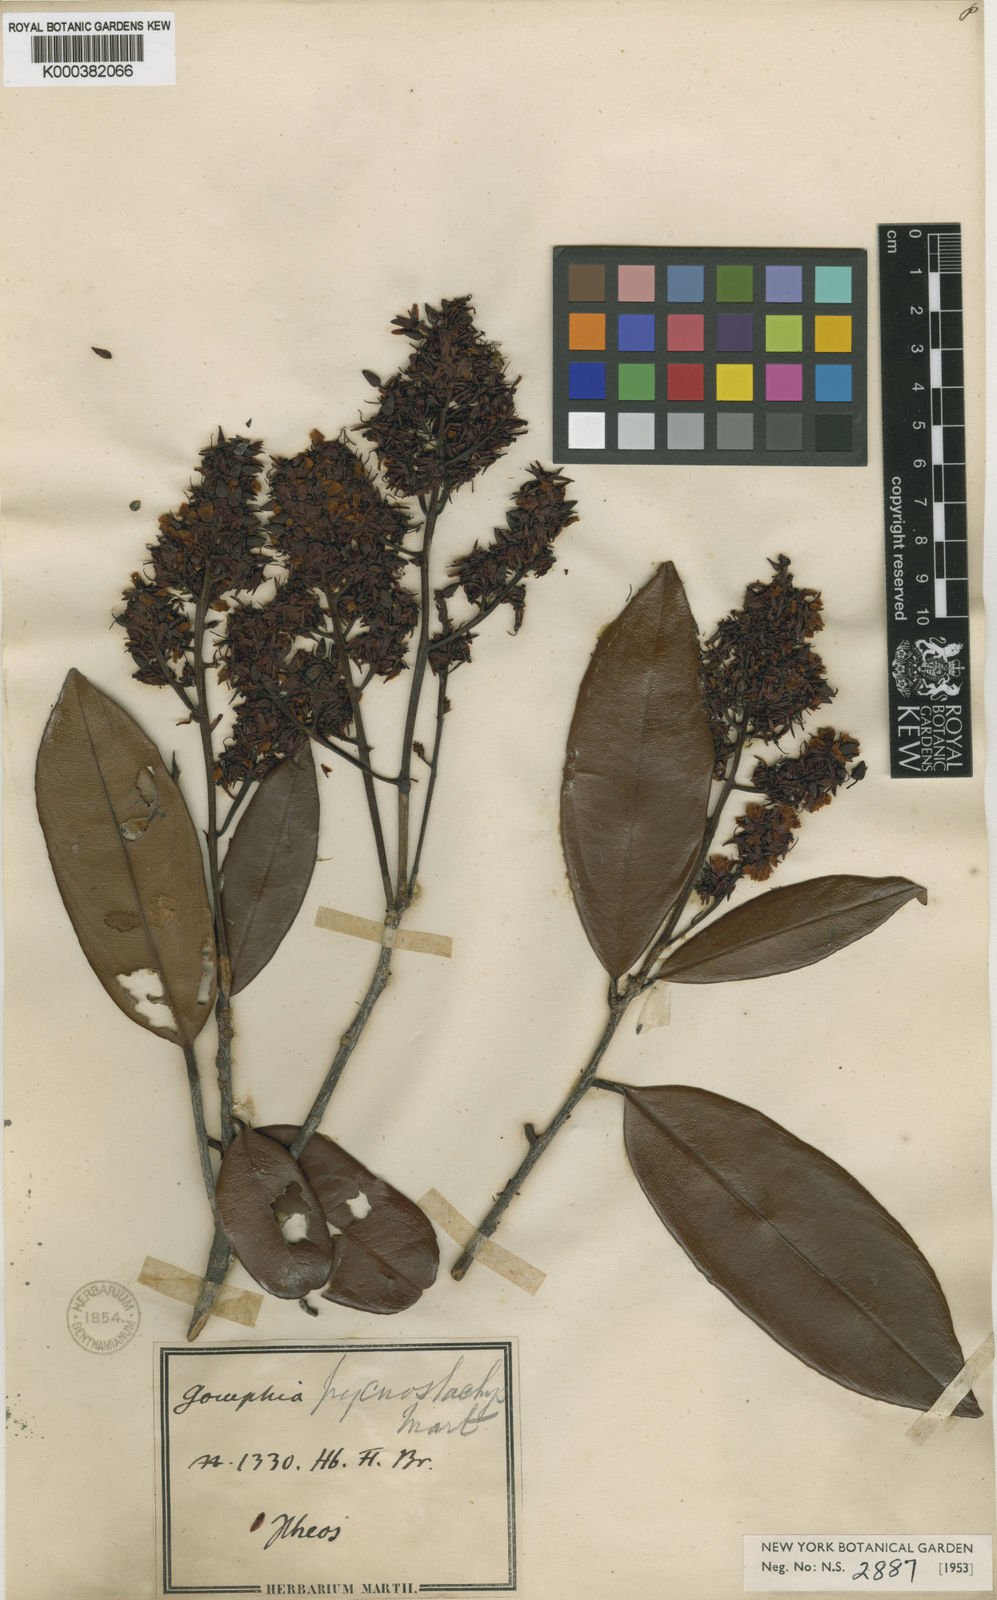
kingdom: Plantae
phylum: Tracheophyta
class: Magnoliopsida
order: Malpighiales
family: Ochnaceae
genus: Ouratea
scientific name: Ouratea pycnostachys
